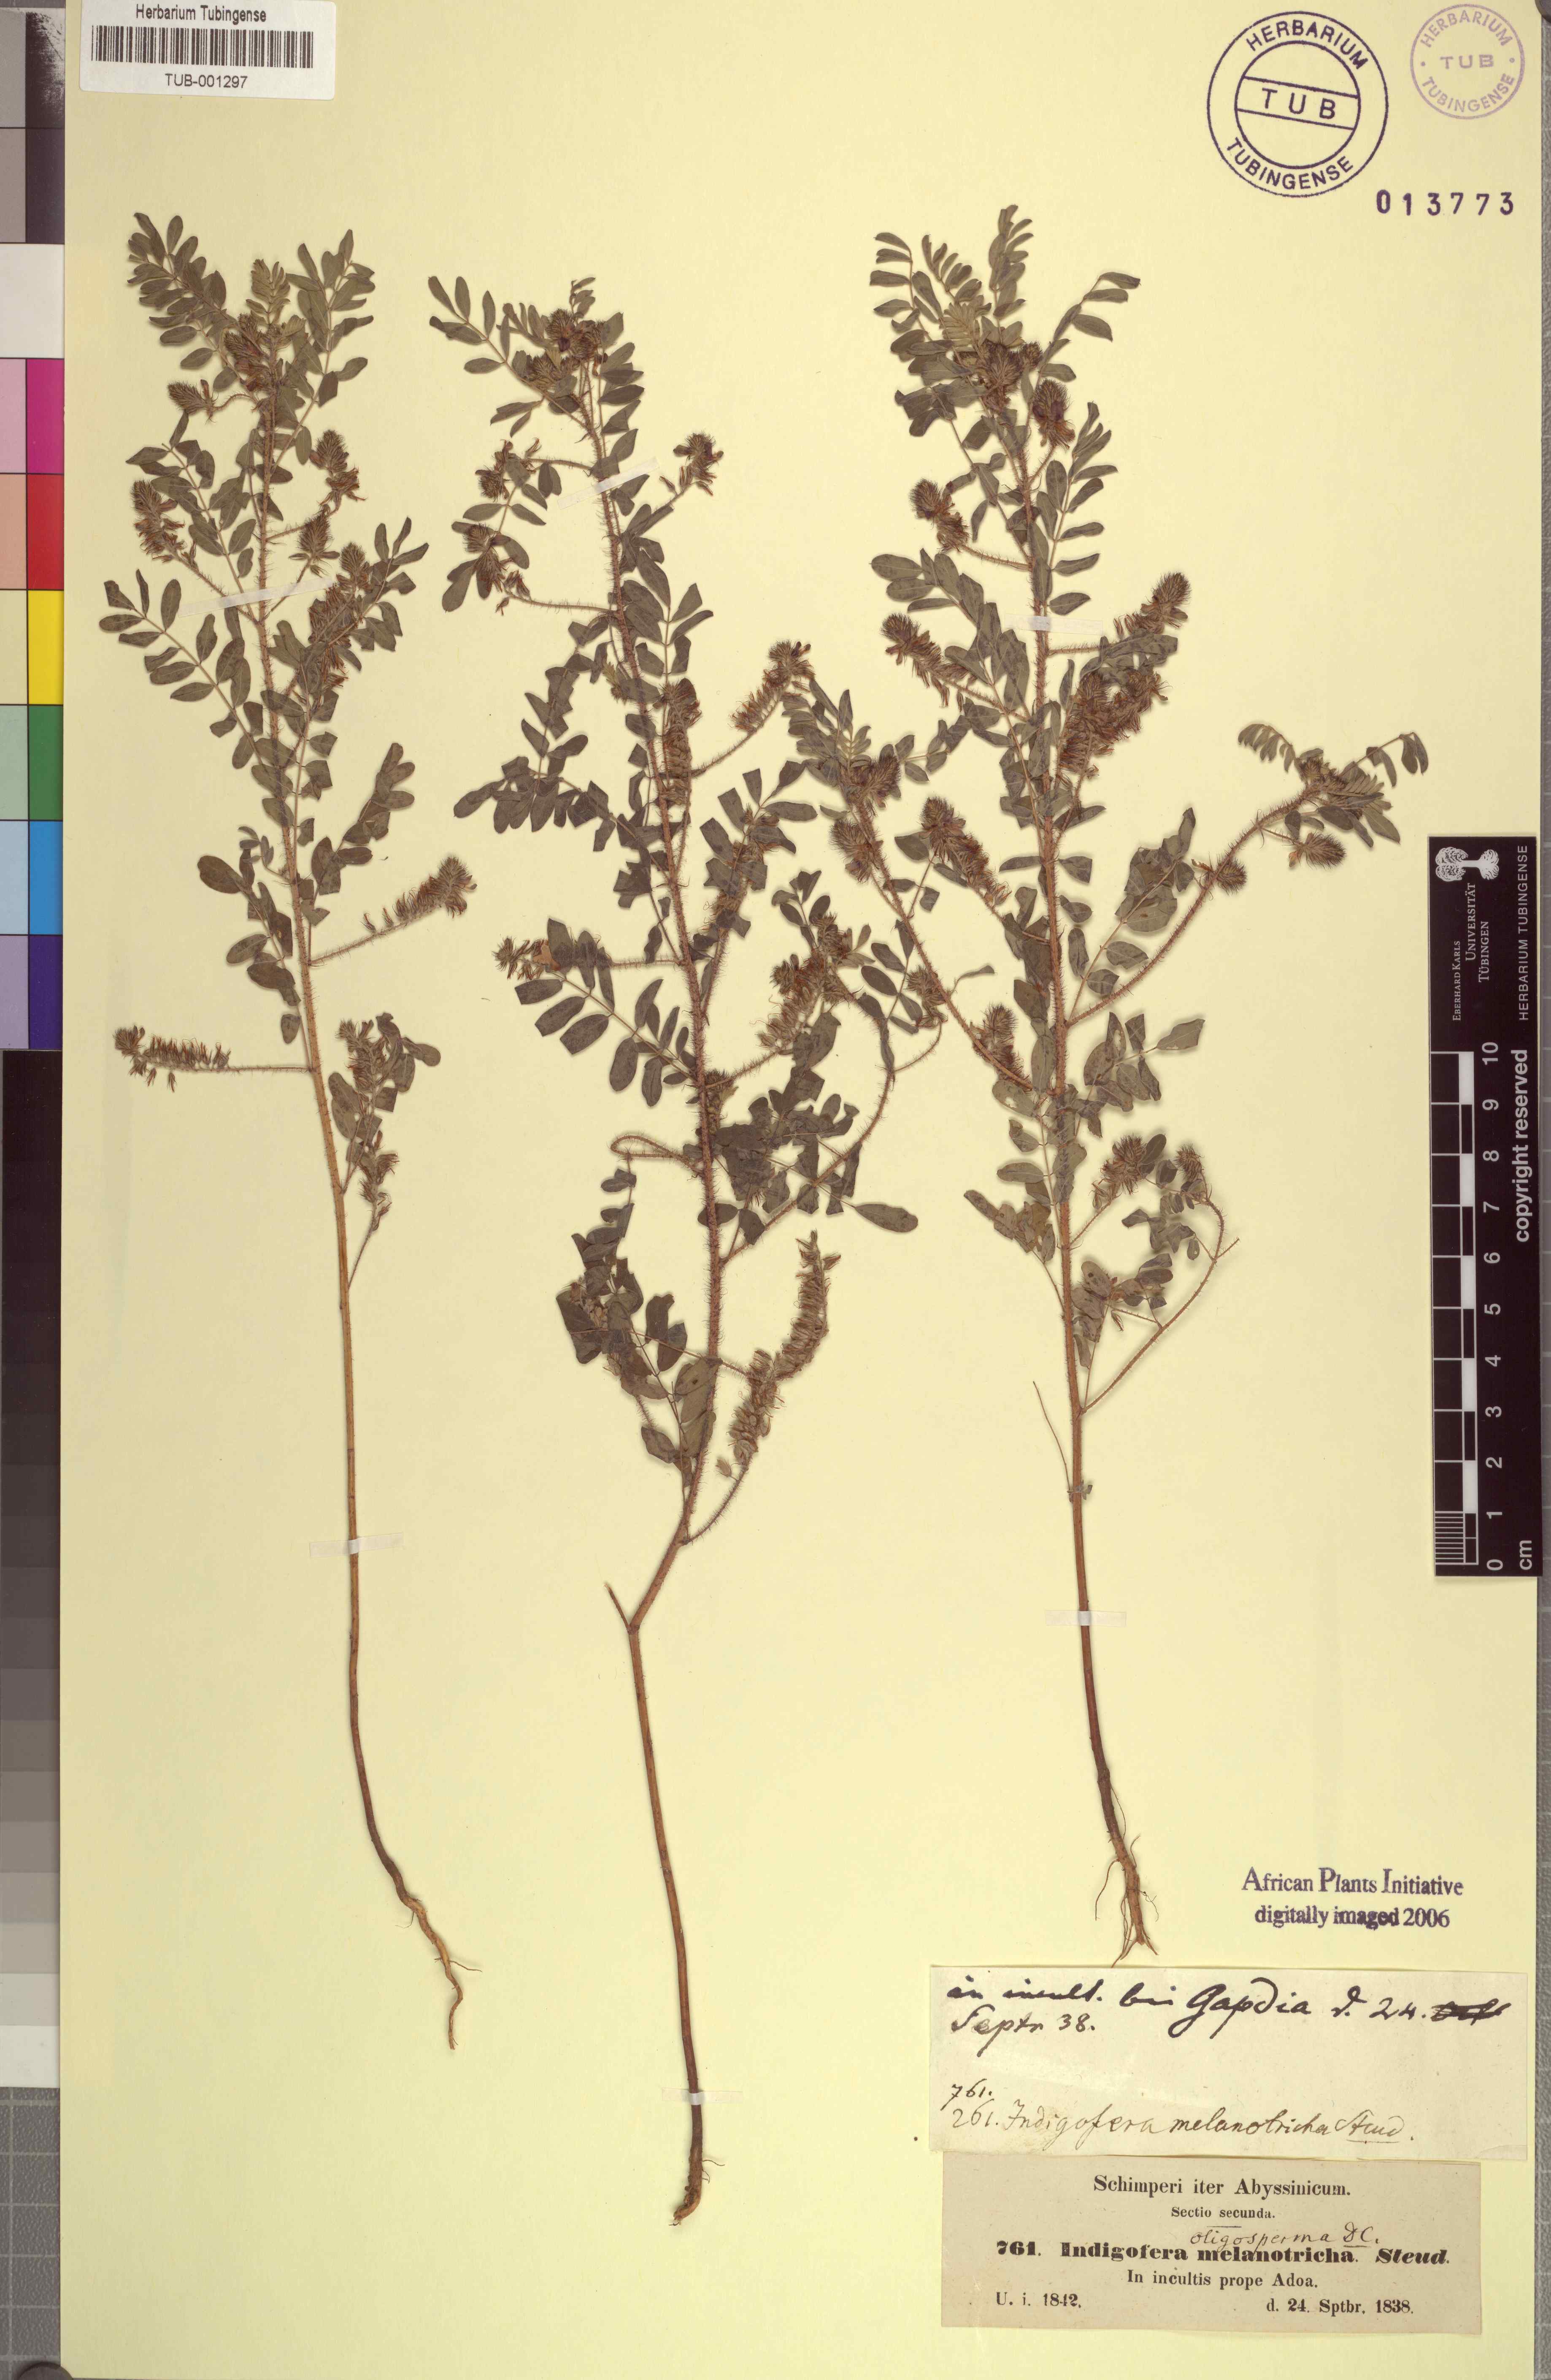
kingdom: Plantae
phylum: Tracheophyta
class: Magnoliopsida
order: Fabales
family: Fabaceae
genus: Indigofera
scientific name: Indigofera secundiflora
